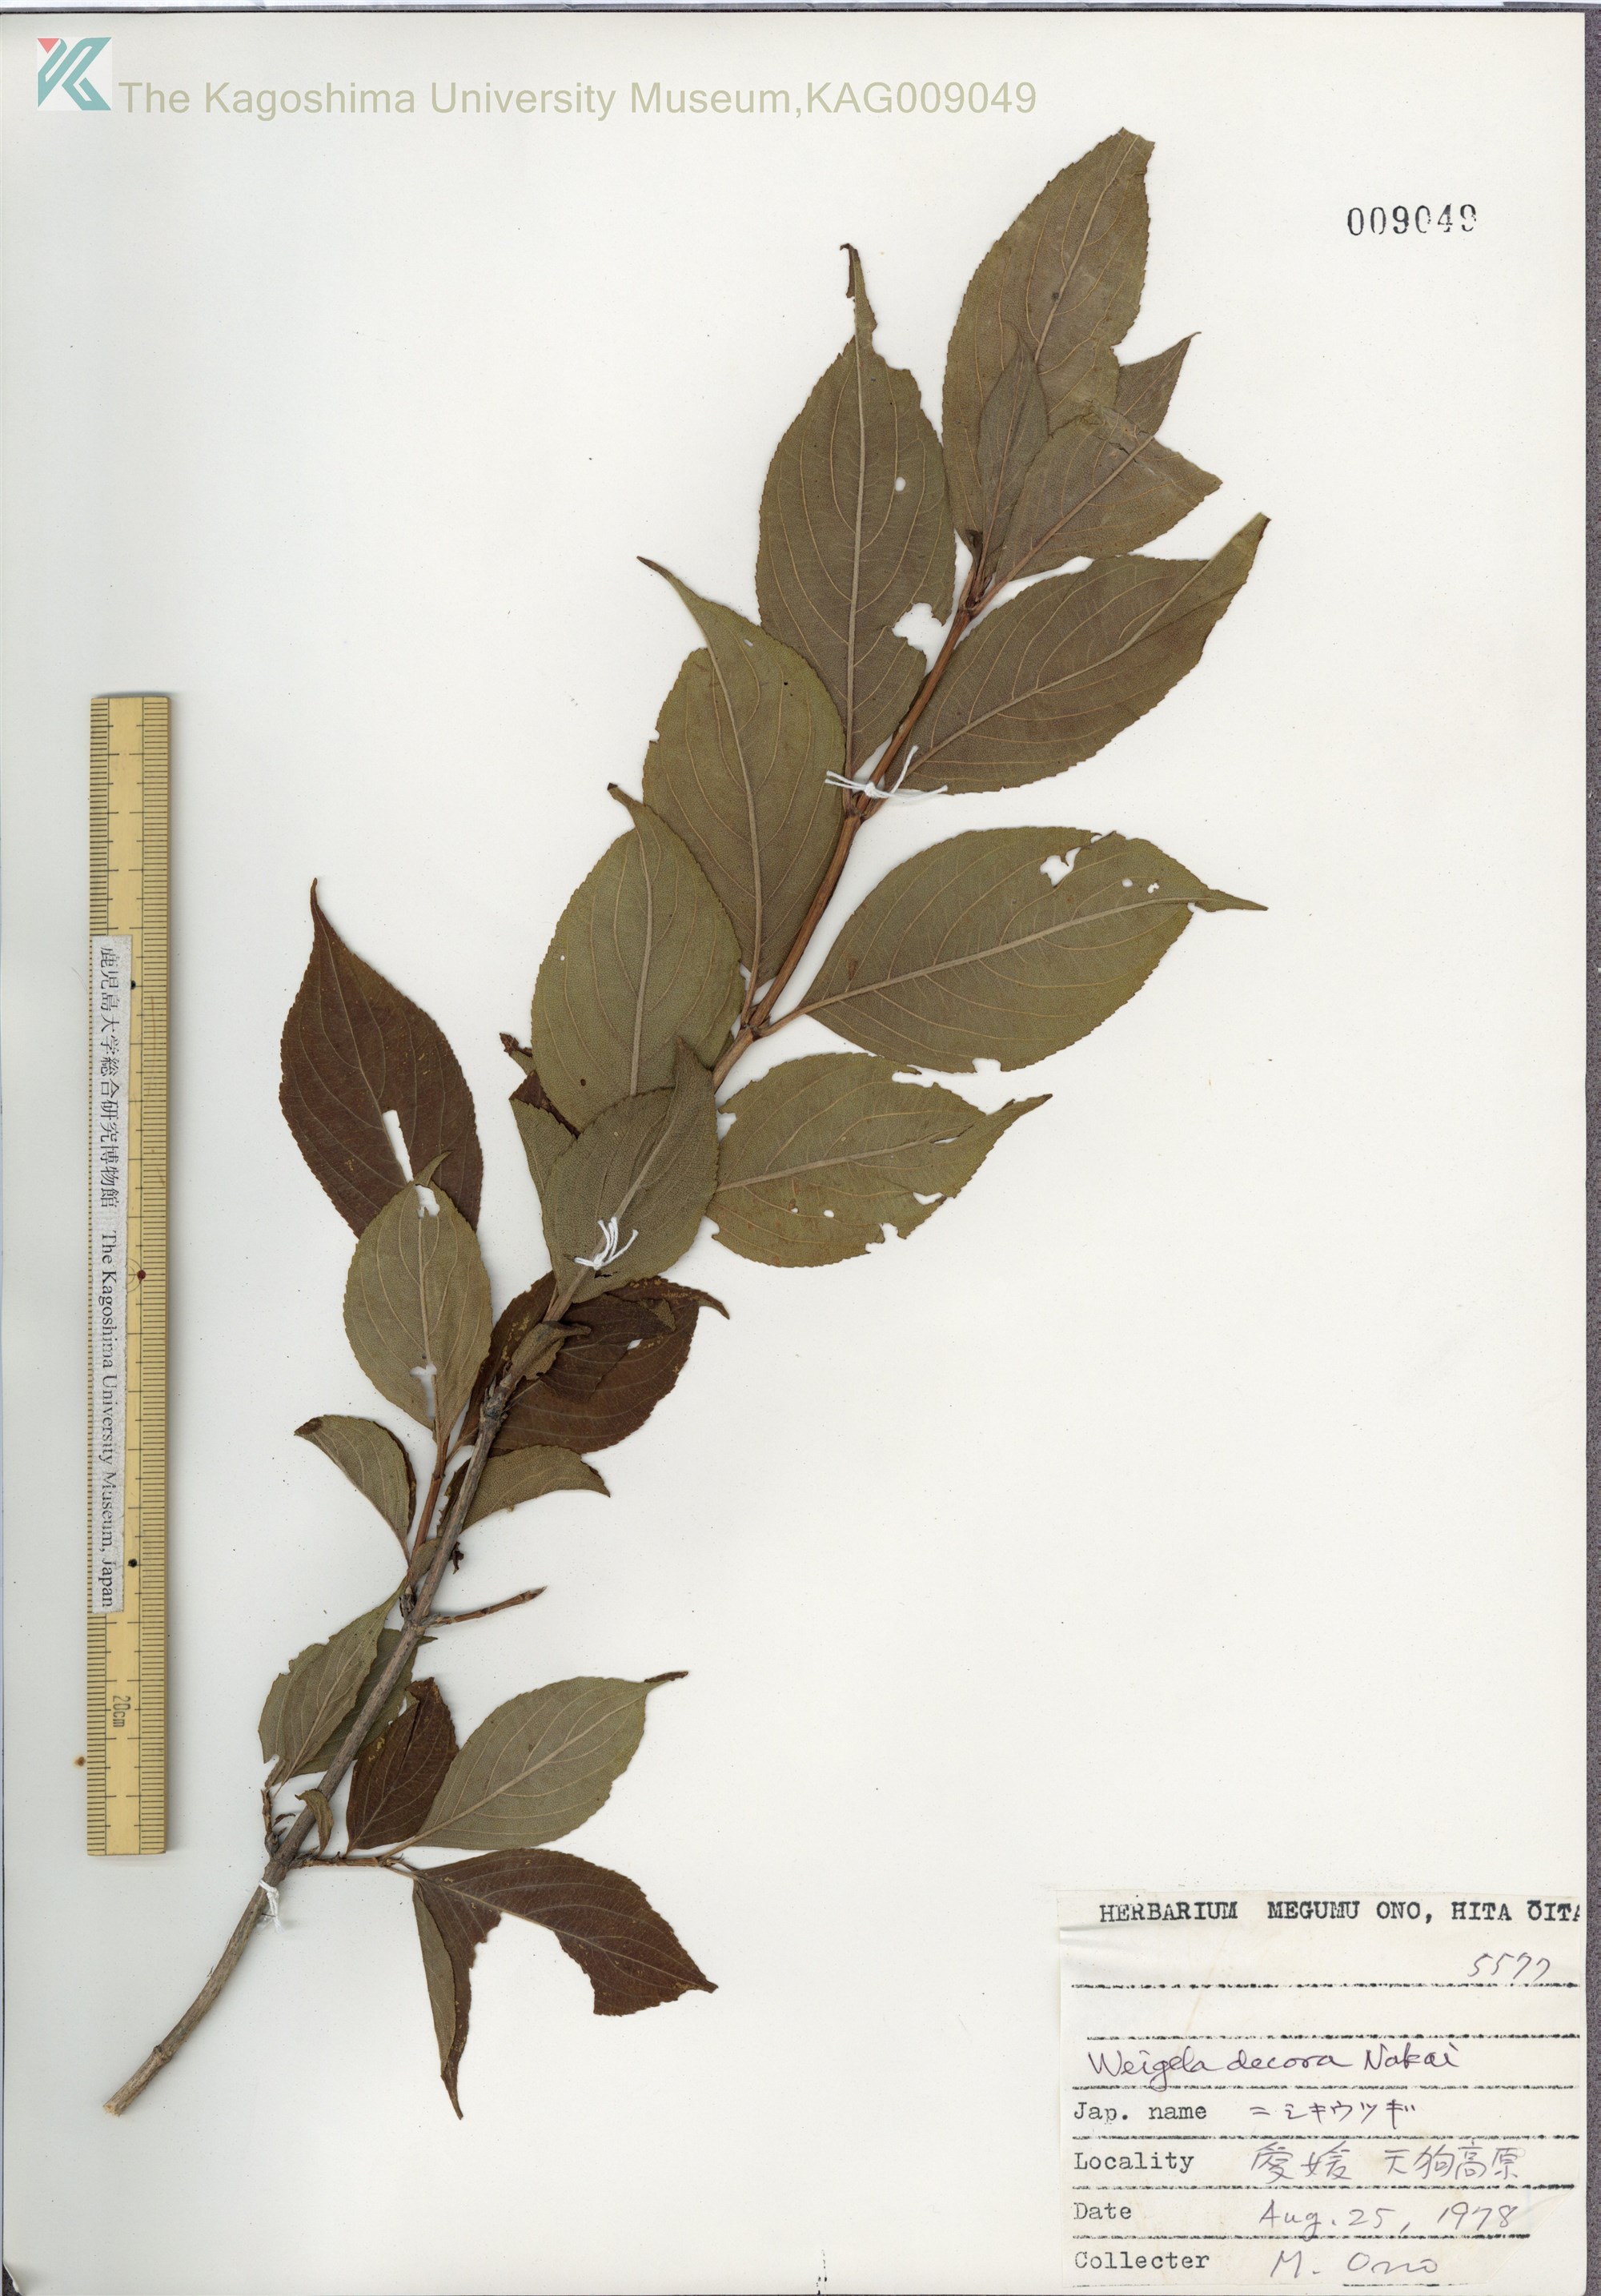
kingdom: Plantae
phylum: Tracheophyta
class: Magnoliopsida
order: Dipsacales
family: Caprifoliaceae
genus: Weigela
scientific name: Weigela decora
